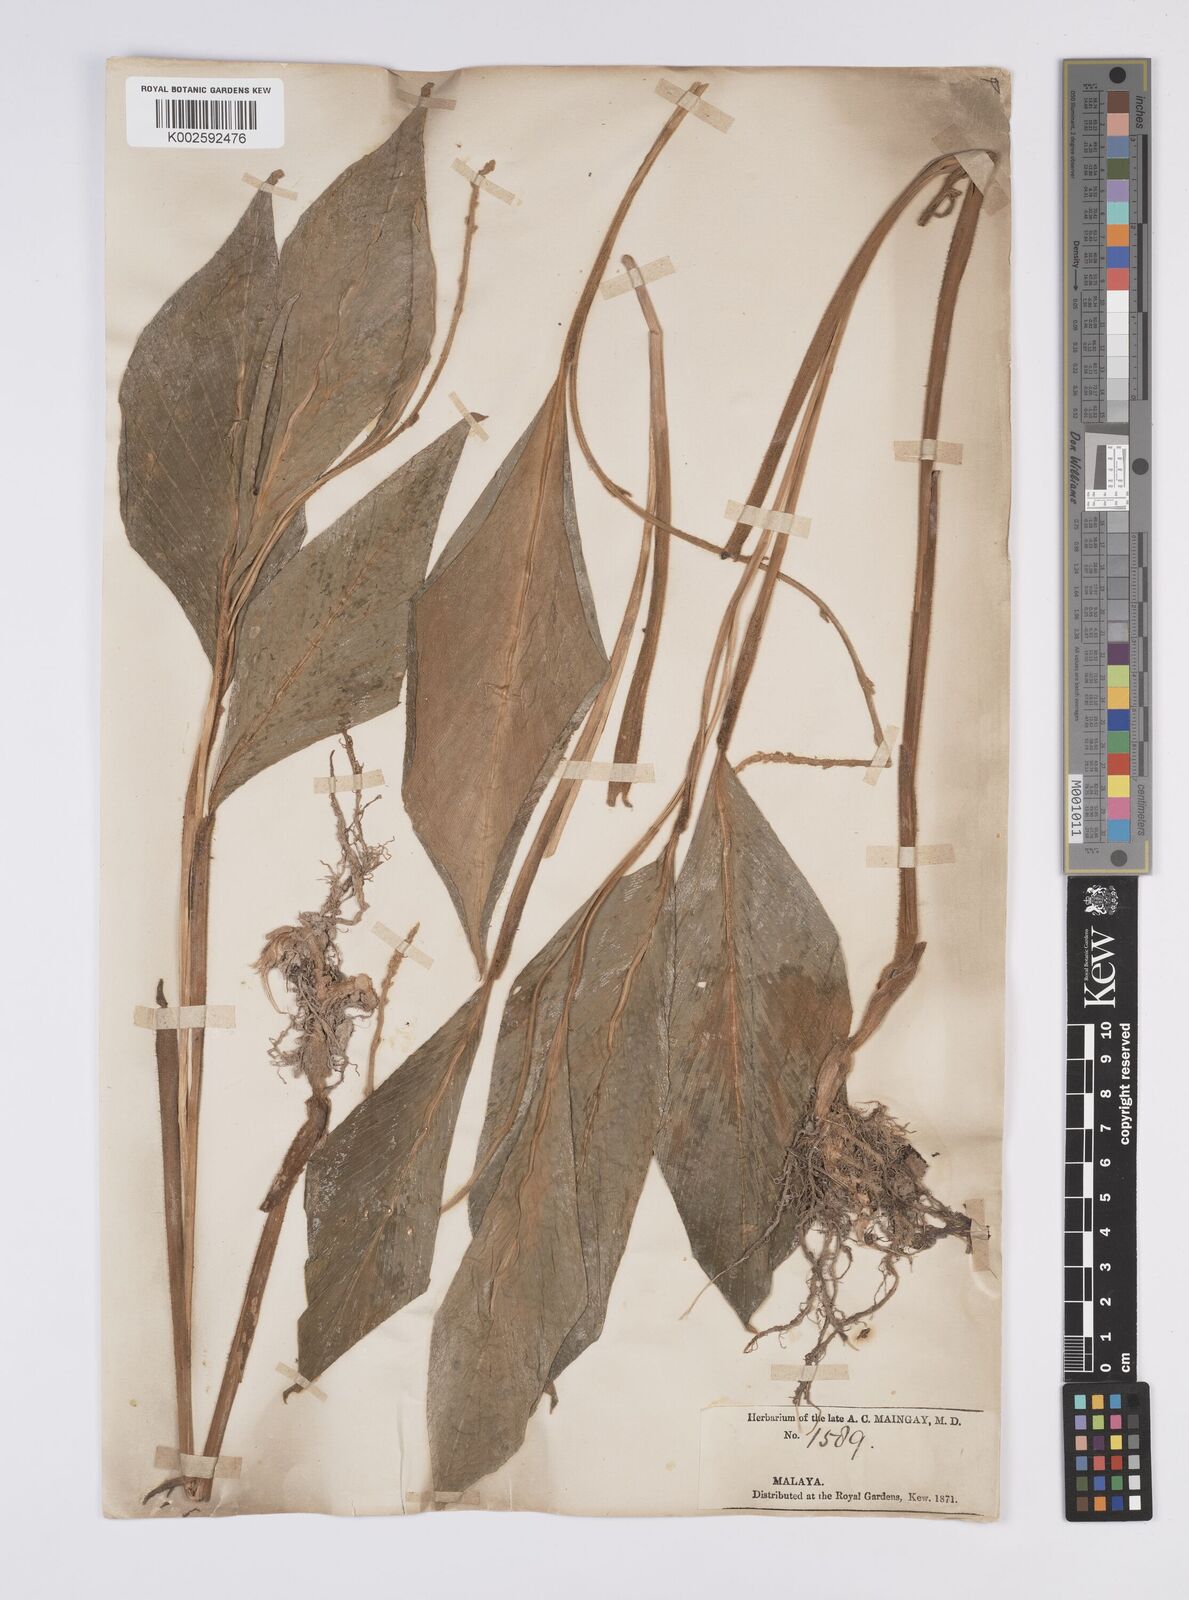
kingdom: Plantae
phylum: Tracheophyta
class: Liliopsida
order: Zingiberales
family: Zingiberaceae
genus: Globba
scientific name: Globba aurantiaca
